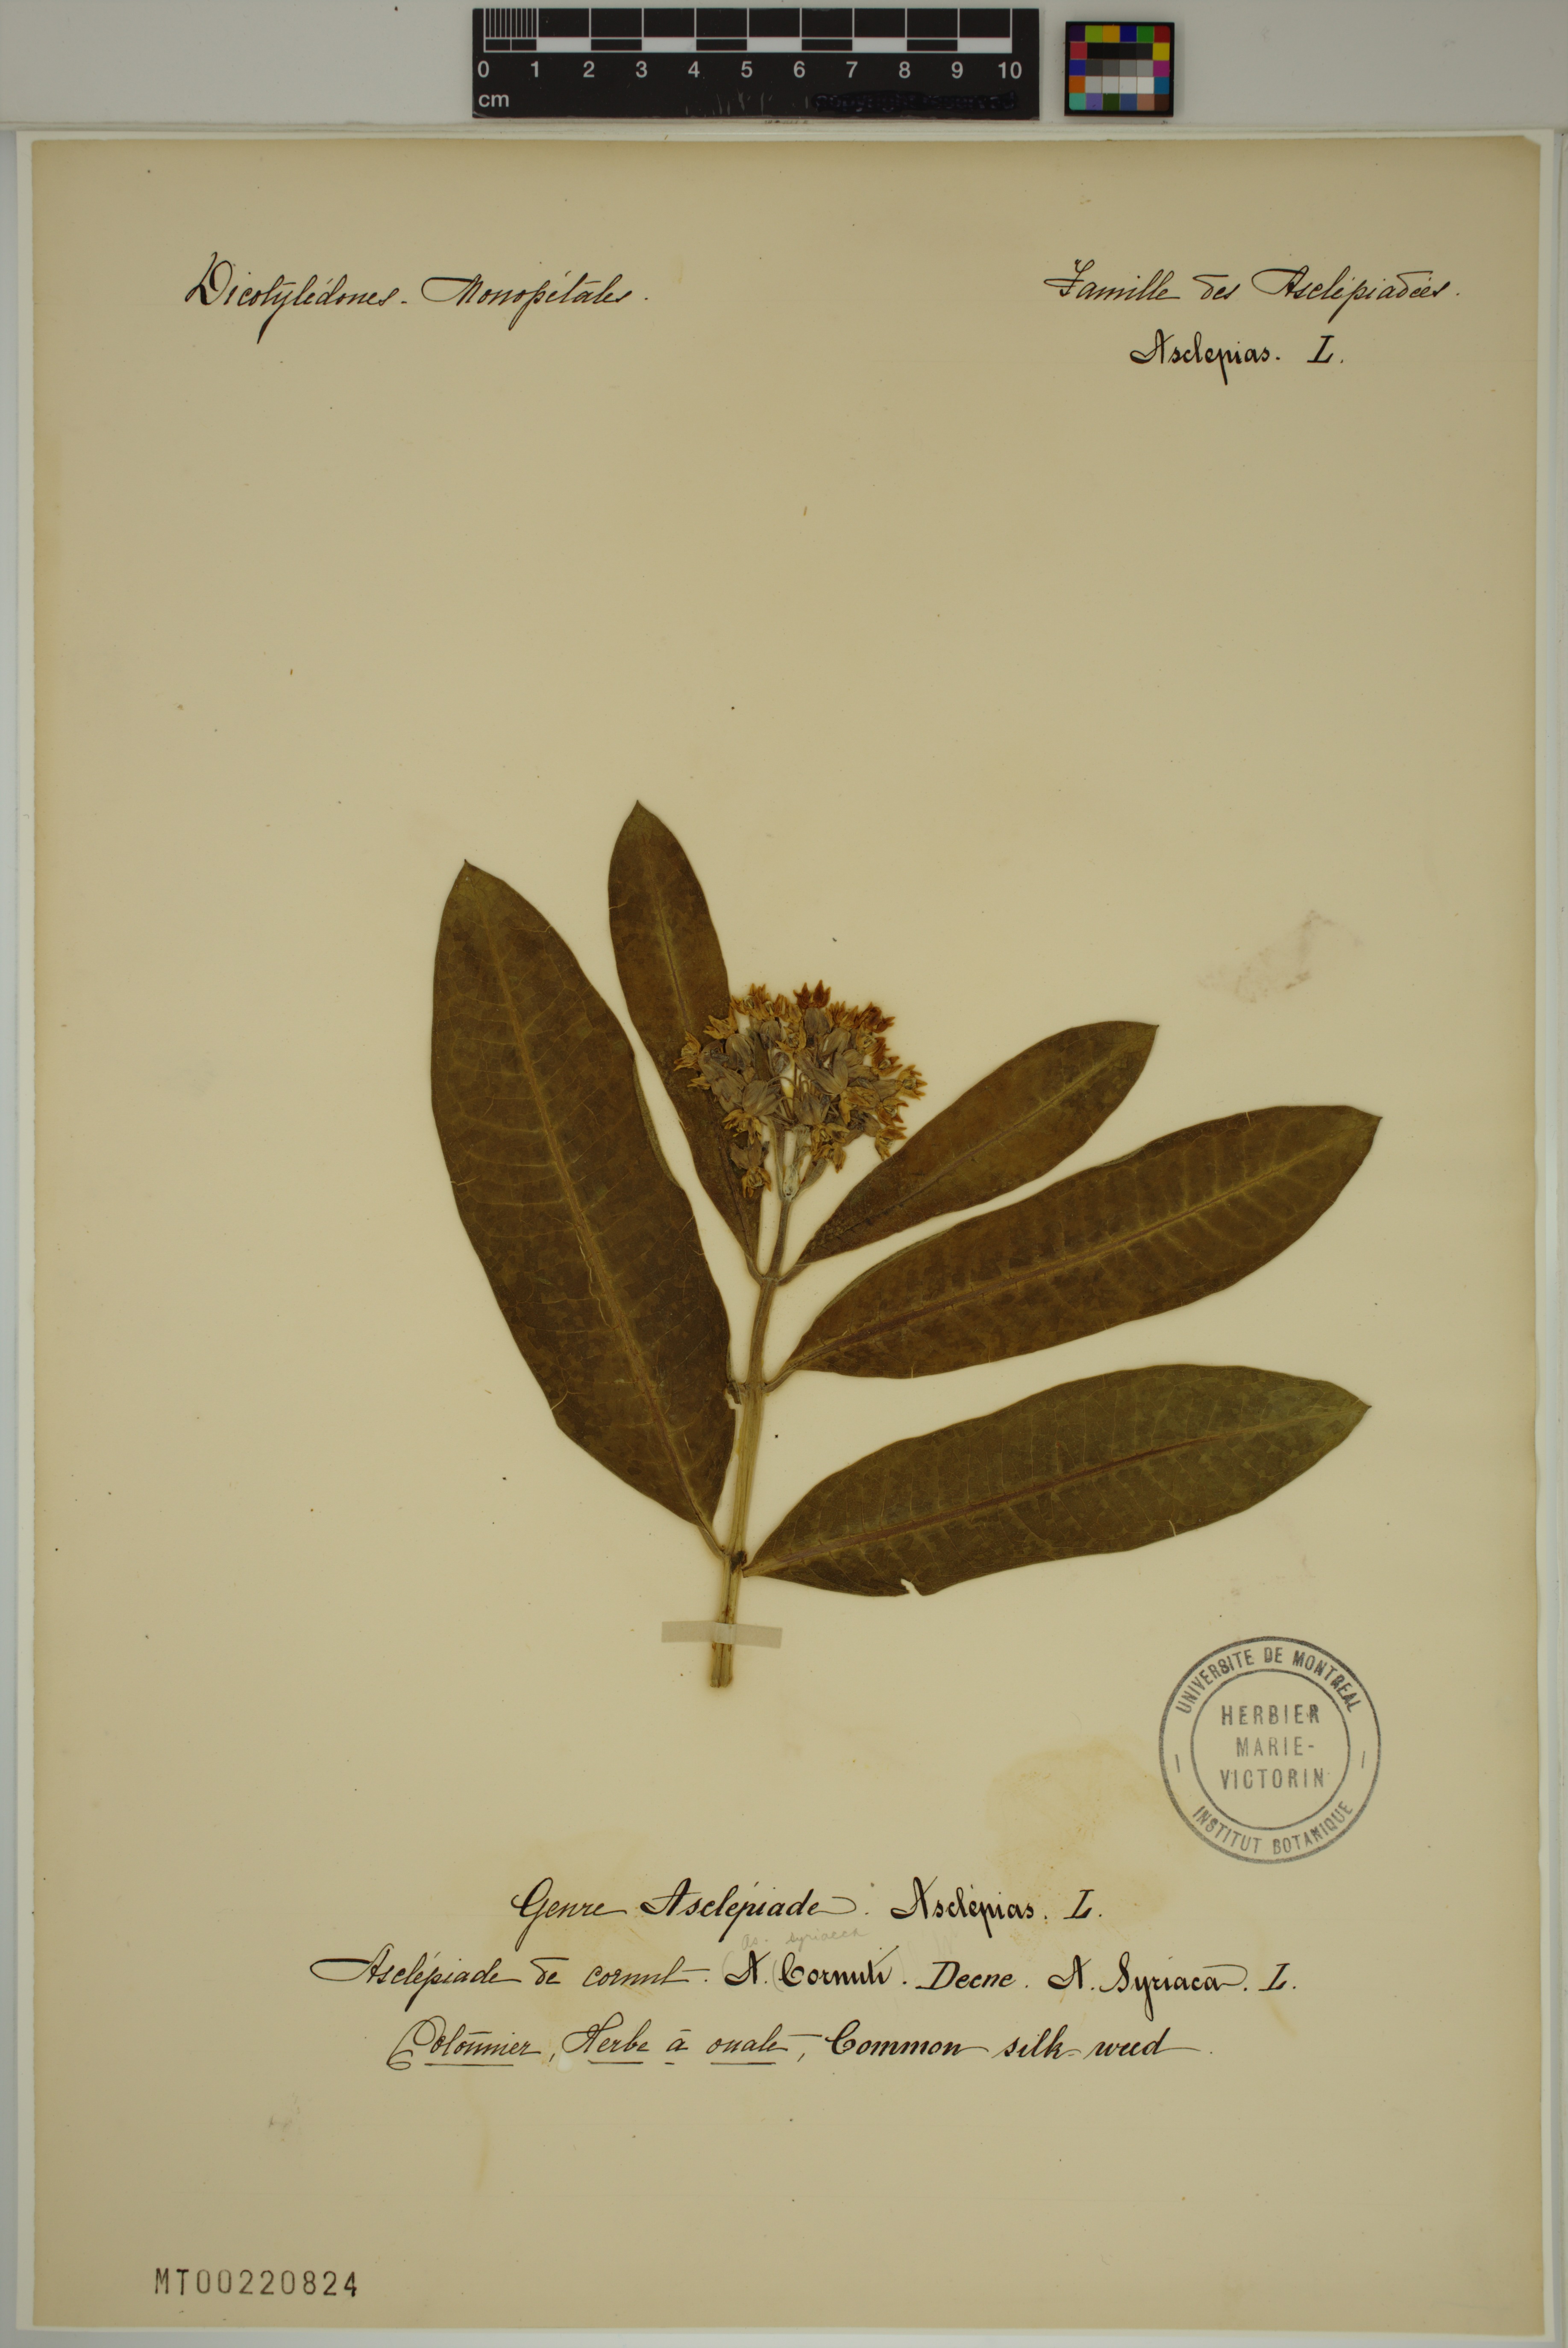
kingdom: Plantae
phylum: Tracheophyta
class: Magnoliopsida
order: Gentianales
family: Apocynaceae
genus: Asclepias
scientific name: Asclepias syriaca
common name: Common milkweed
